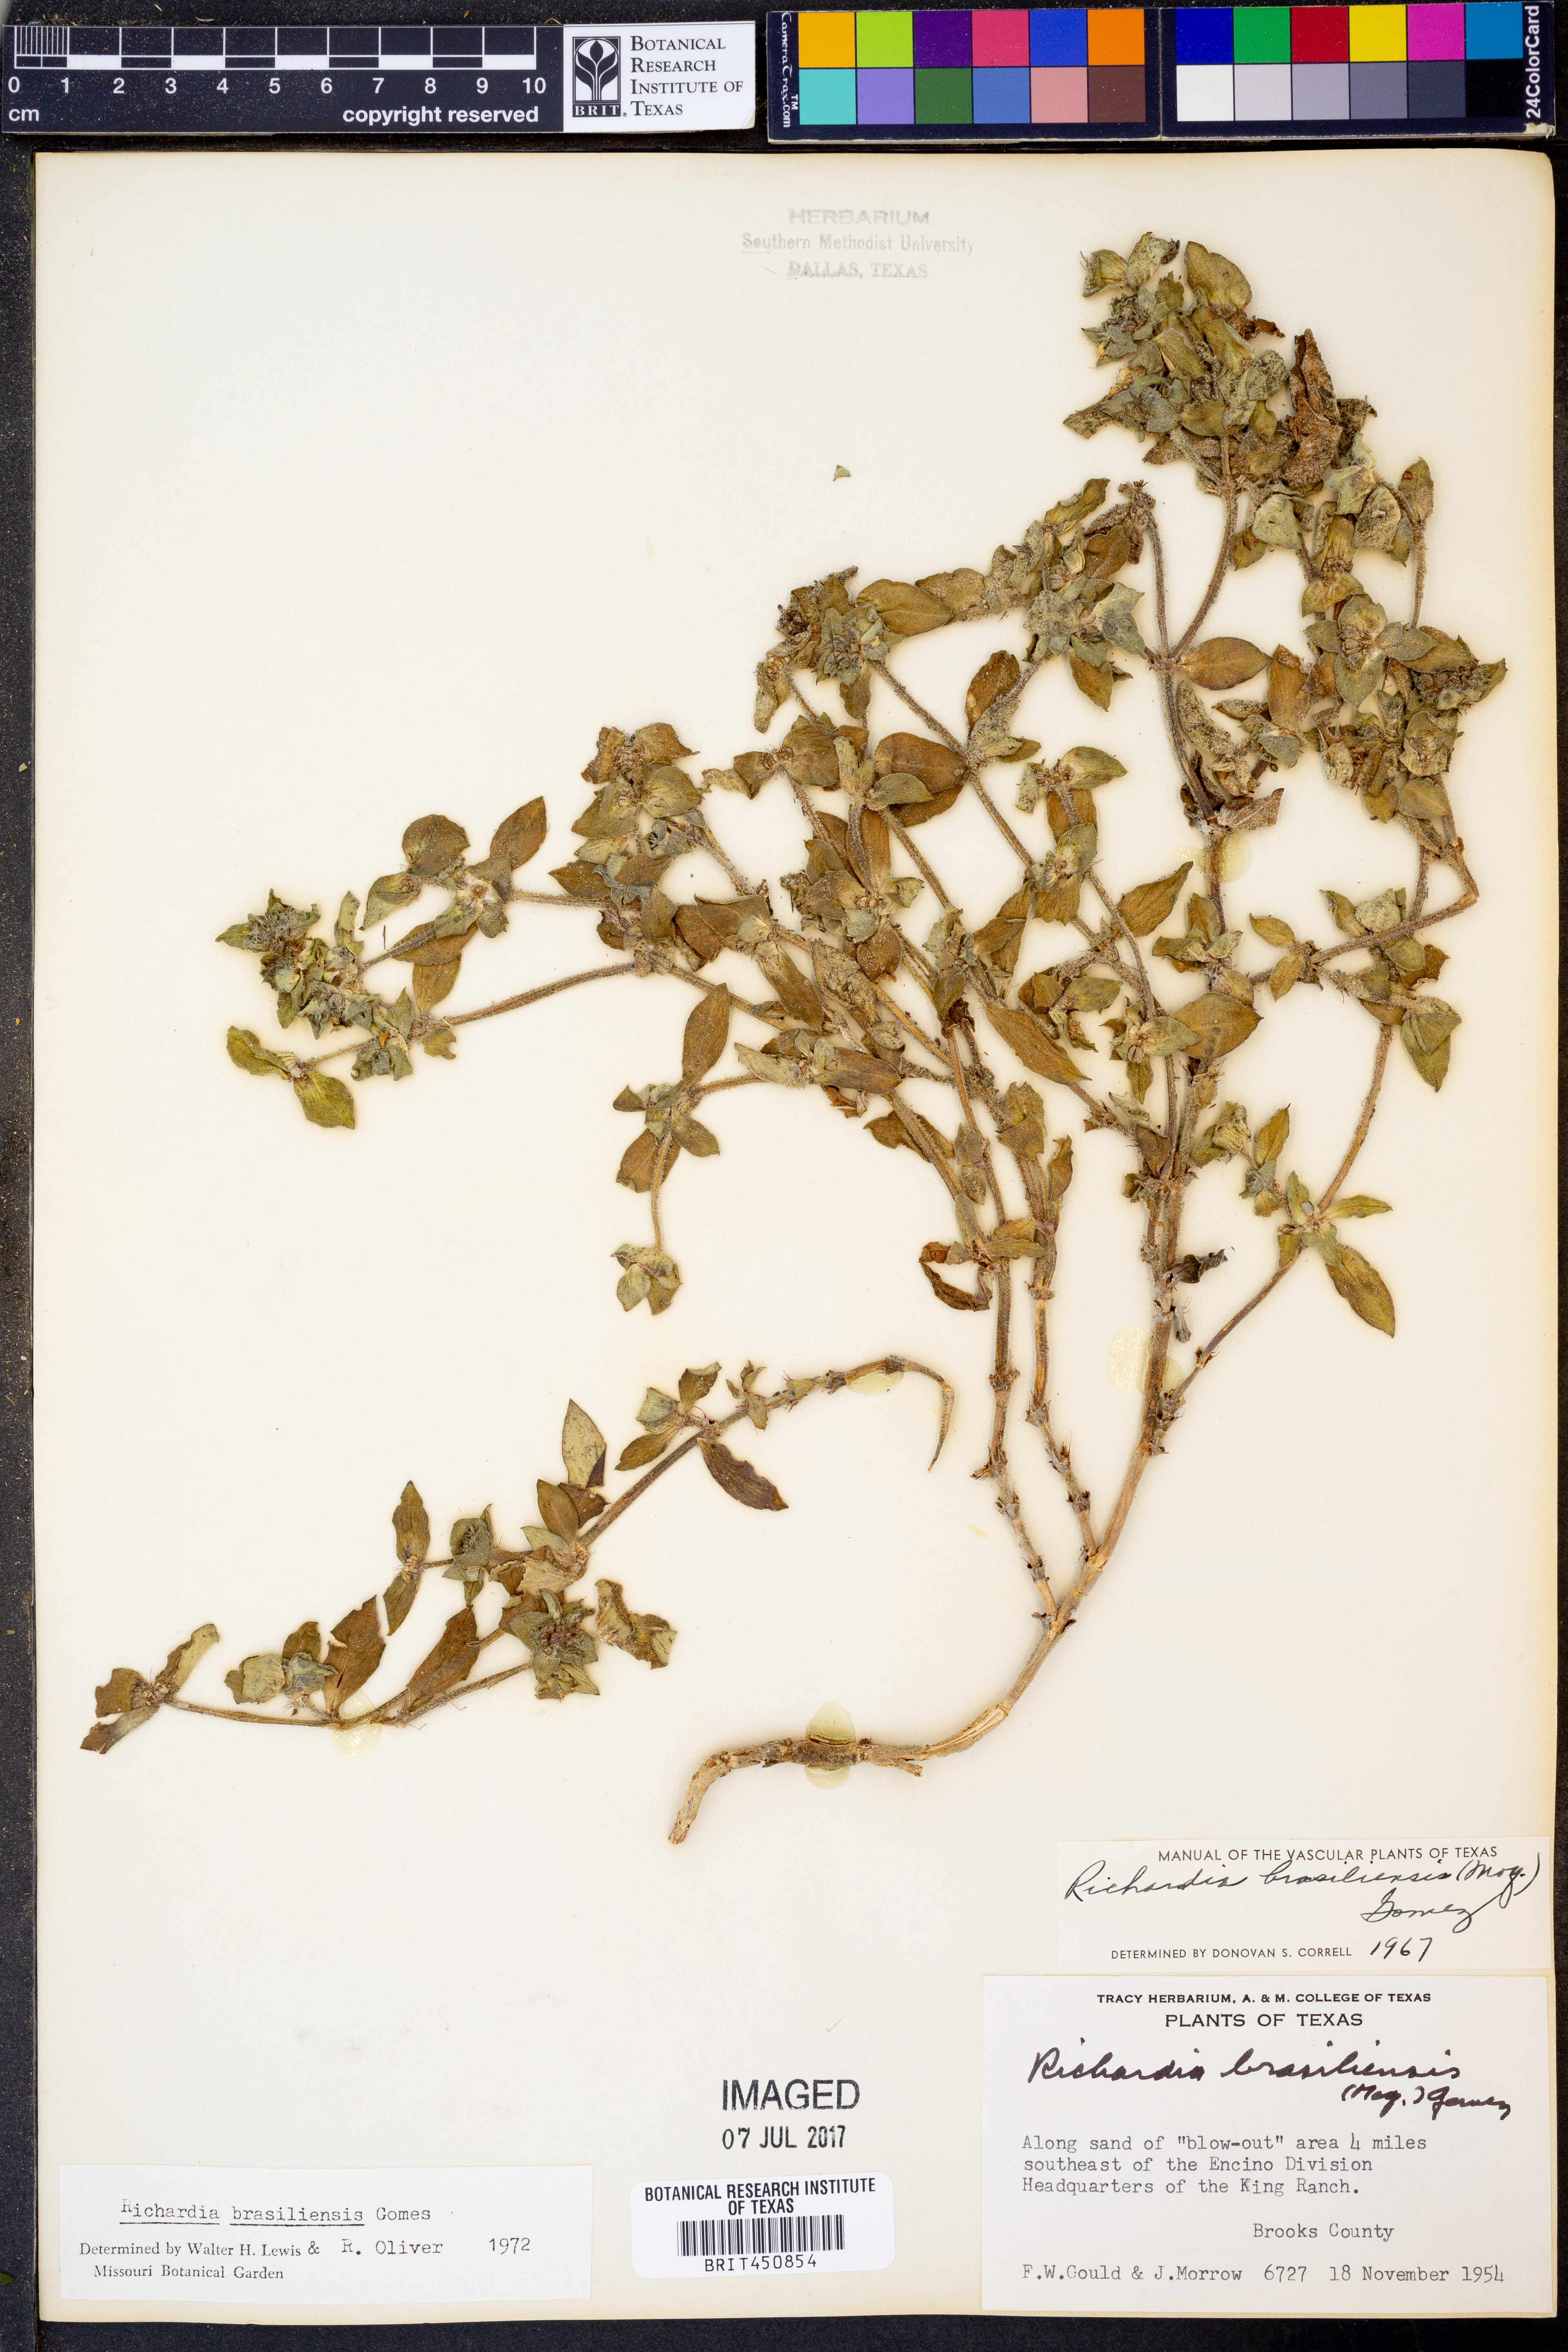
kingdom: Plantae
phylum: Tracheophyta
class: Magnoliopsida
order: Gentianales
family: Rubiaceae
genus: Richardia
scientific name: Richardia brasiliensis
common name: Tropical mexican clover
